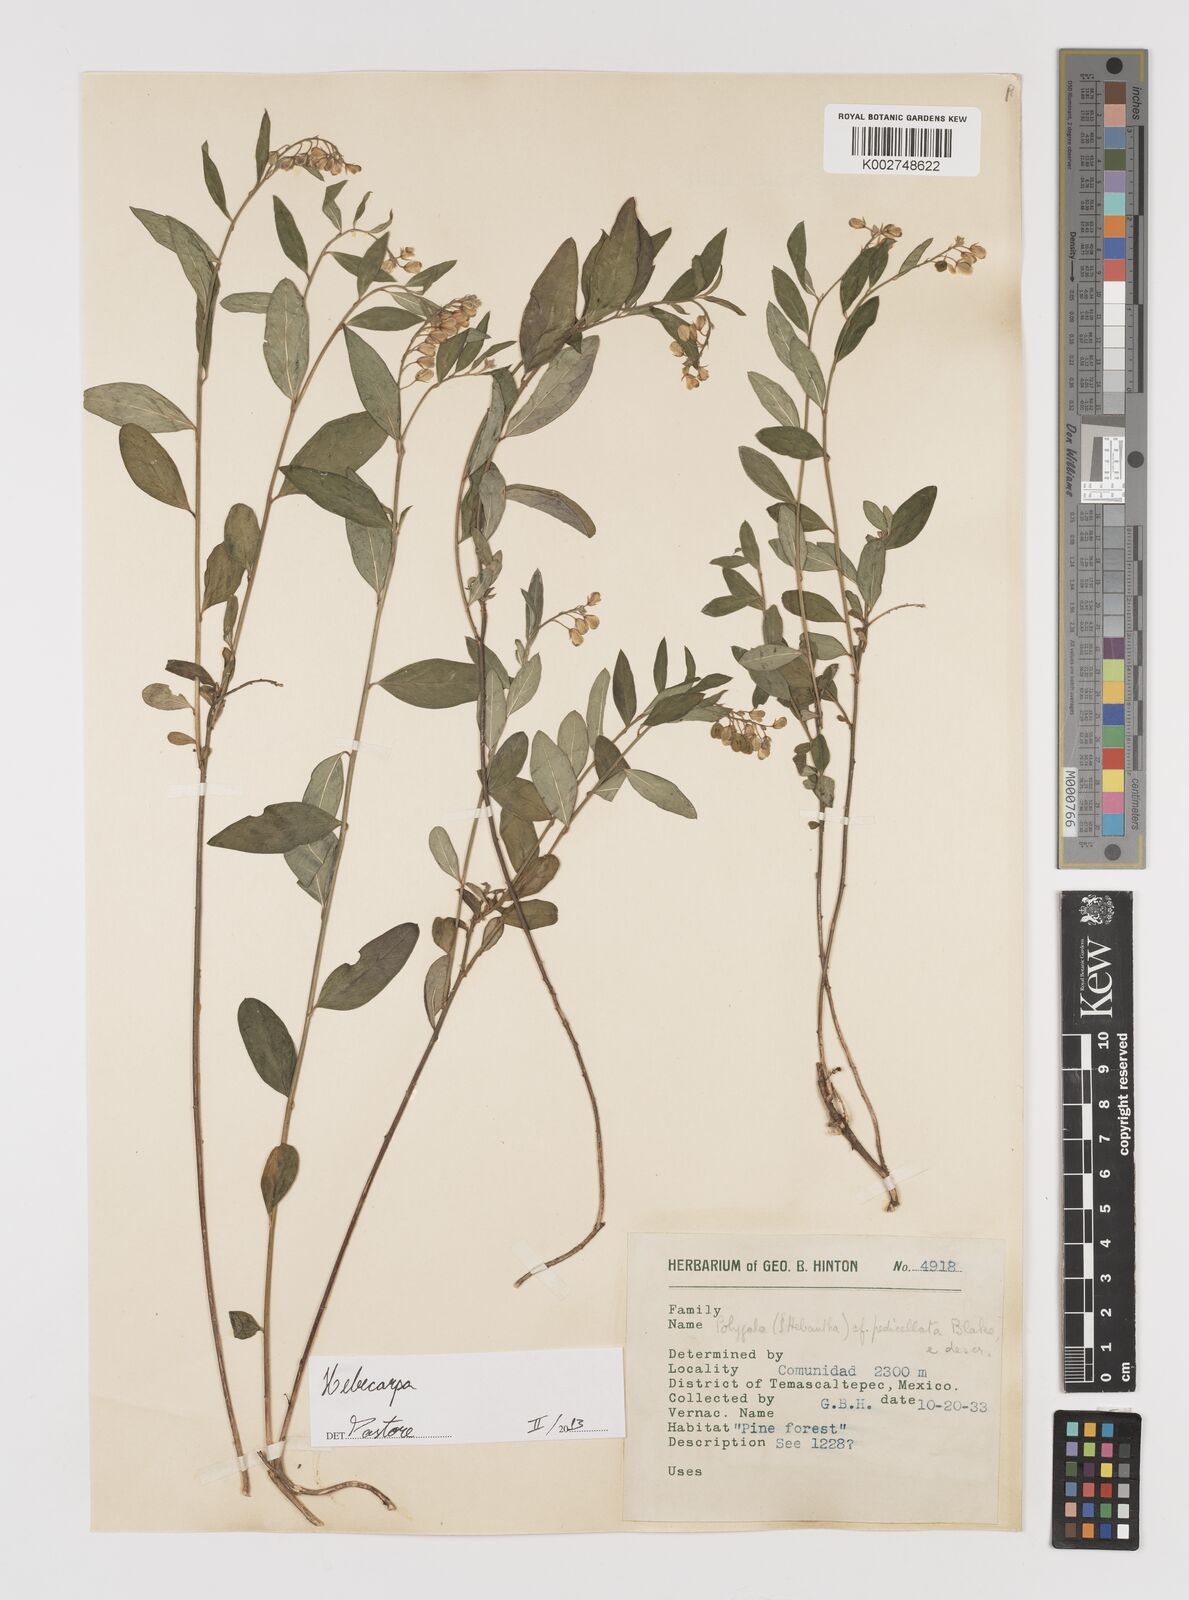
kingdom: Plantae
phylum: Tracheophyta
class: Magnoliopsida
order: Fabales
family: Polygalaceae
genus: Hebecarpa
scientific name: Hebecarpa
